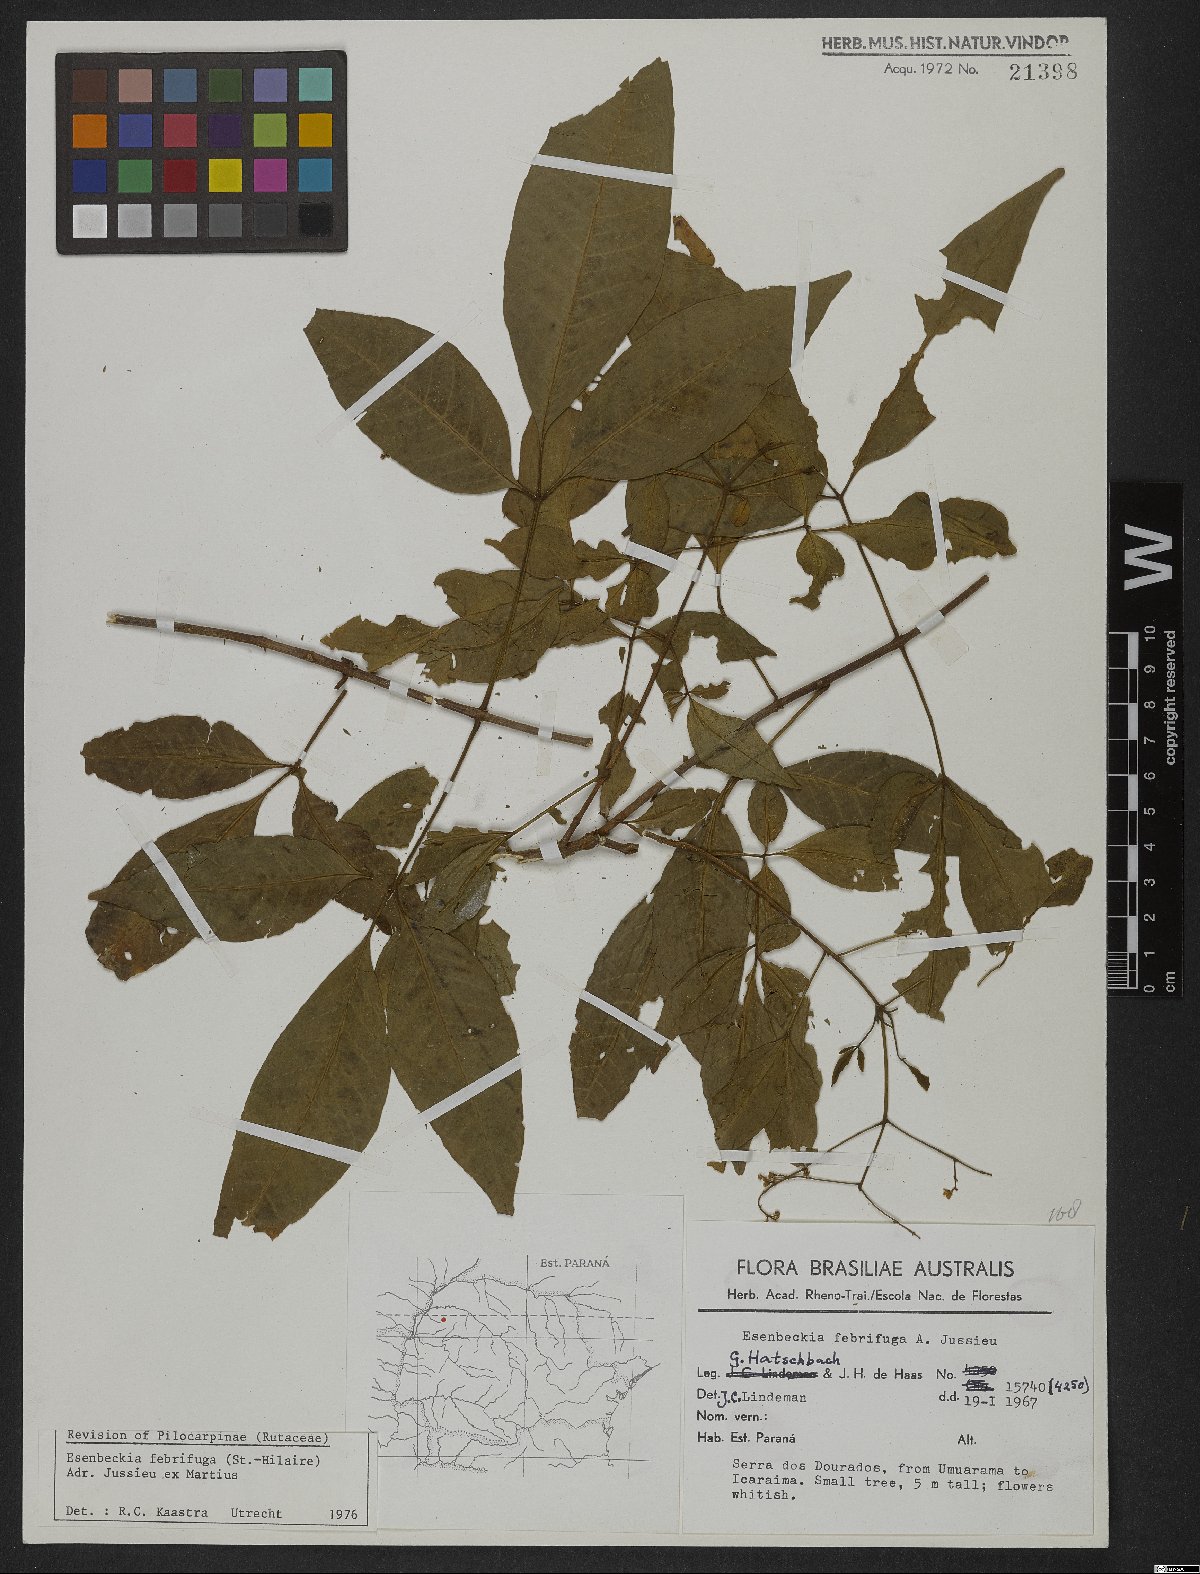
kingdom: Plantae
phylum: Tracheophyta
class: Magnoliopsida
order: Sapindales
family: Rutaceae
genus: Esenbeckia
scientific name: Esenbeckia febrifuga
